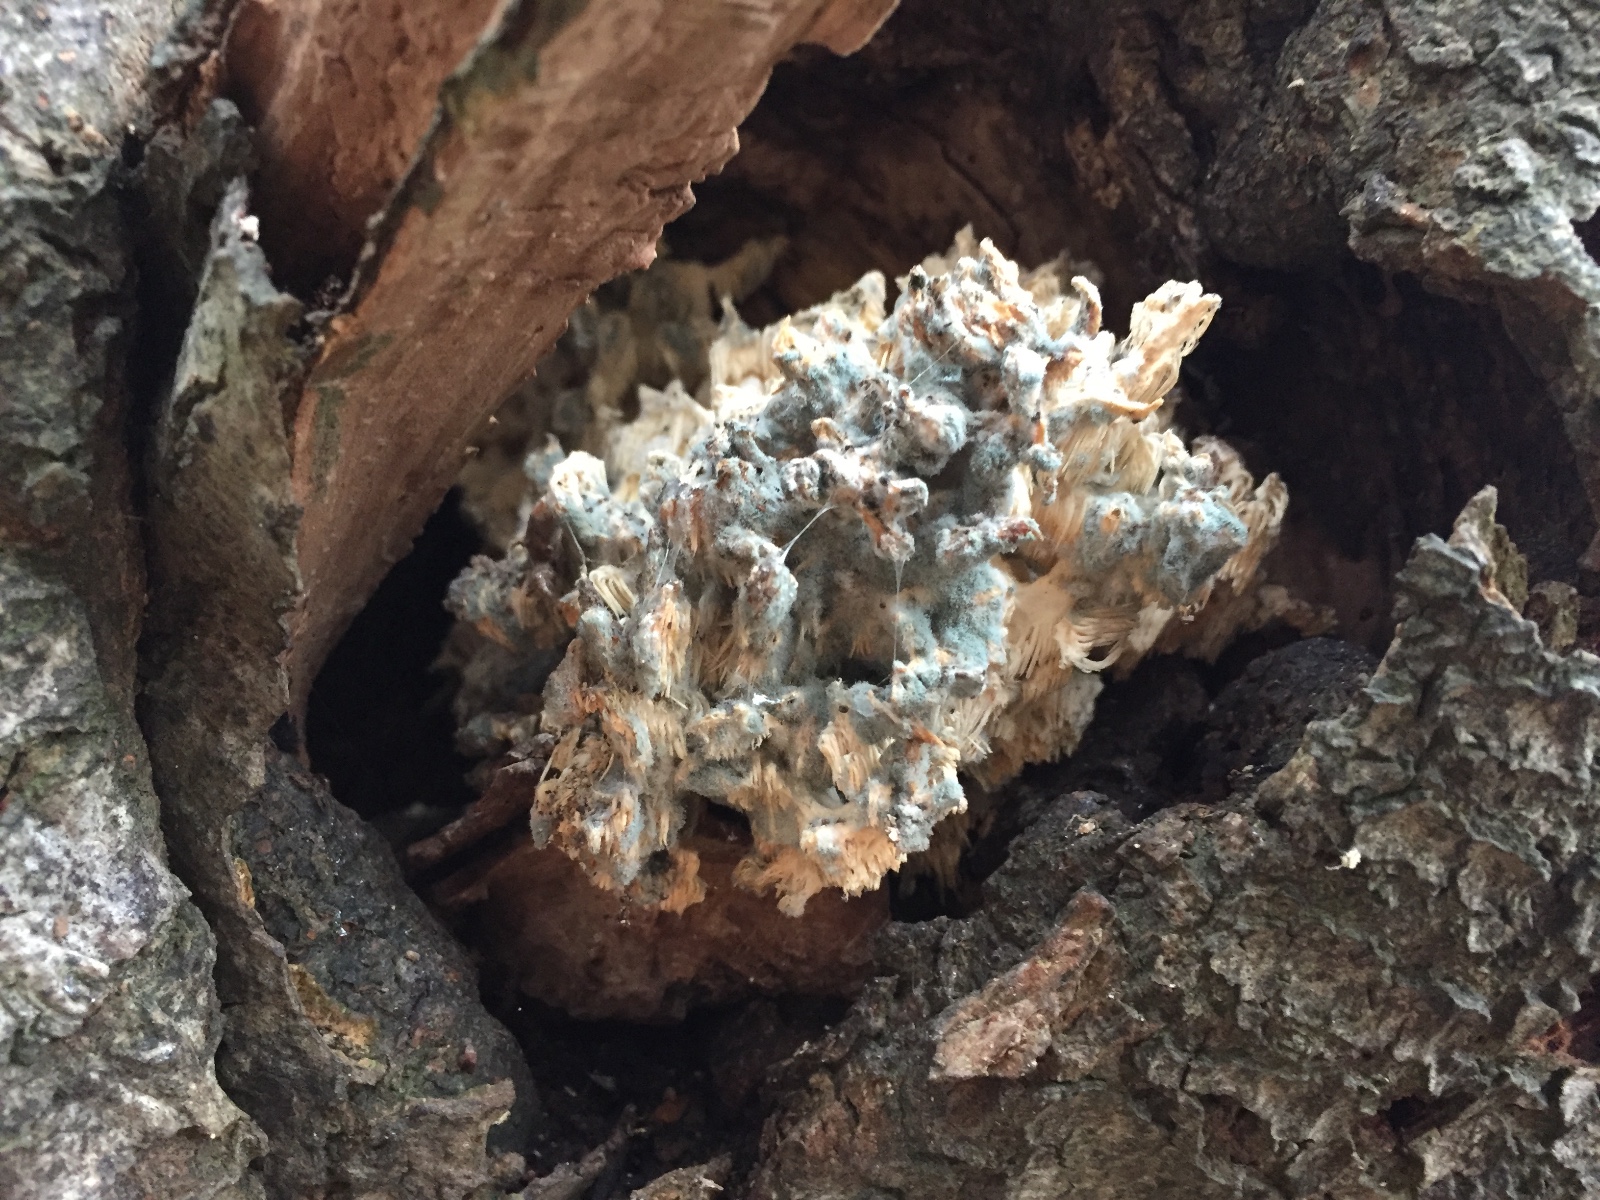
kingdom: Fungi
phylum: Basidiomycota
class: Agaricomycetes
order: Russulales
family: Hericiaceae
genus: Hericium
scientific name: Hericium coralloides
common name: koralpigsvamp
